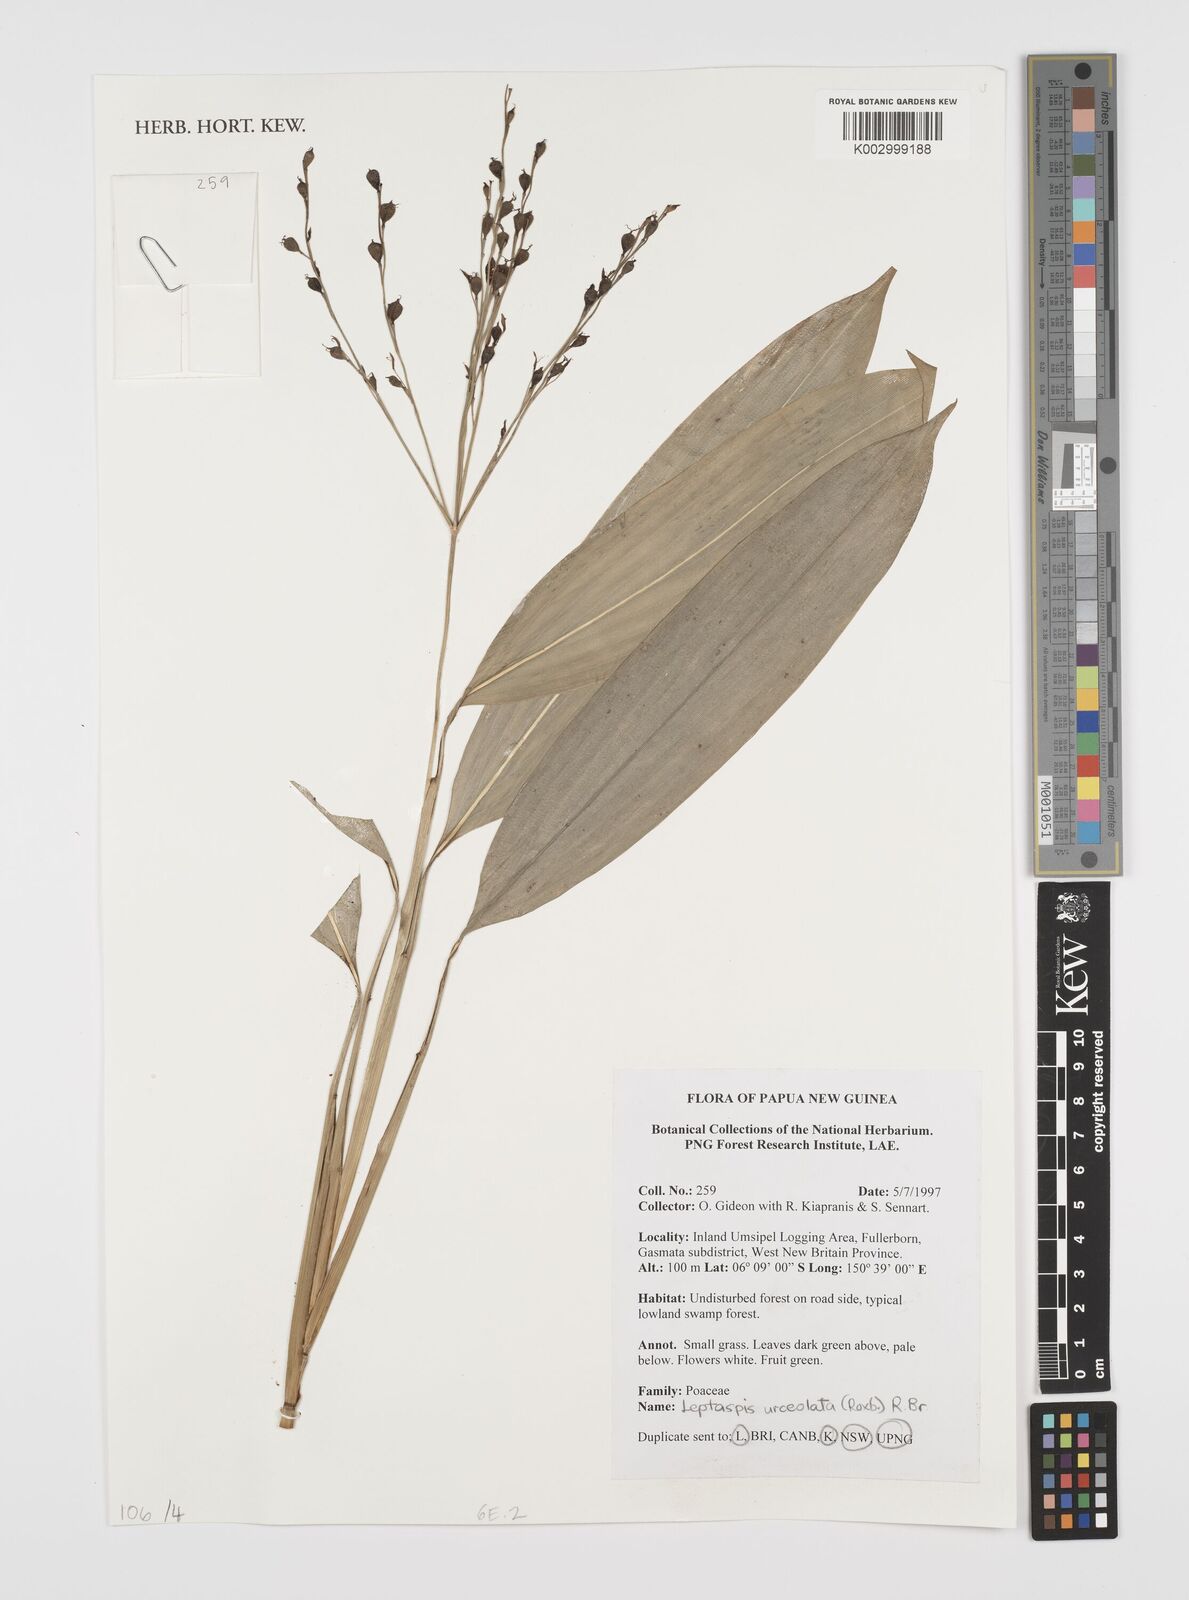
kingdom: Plantae
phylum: Tracheophyta
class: Liliopsida
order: Poales
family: Poaceae
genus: Scrotochloa
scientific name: Scrotochloa urceolata
